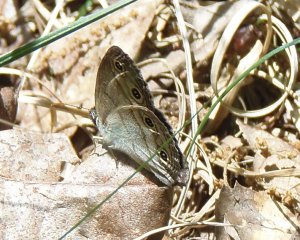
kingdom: Animalia
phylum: Arthropoda
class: Insecta
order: Lepidoptera
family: Nymphalidae
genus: Euptychia
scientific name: Euptychia cymela
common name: Little Wood Satyr
